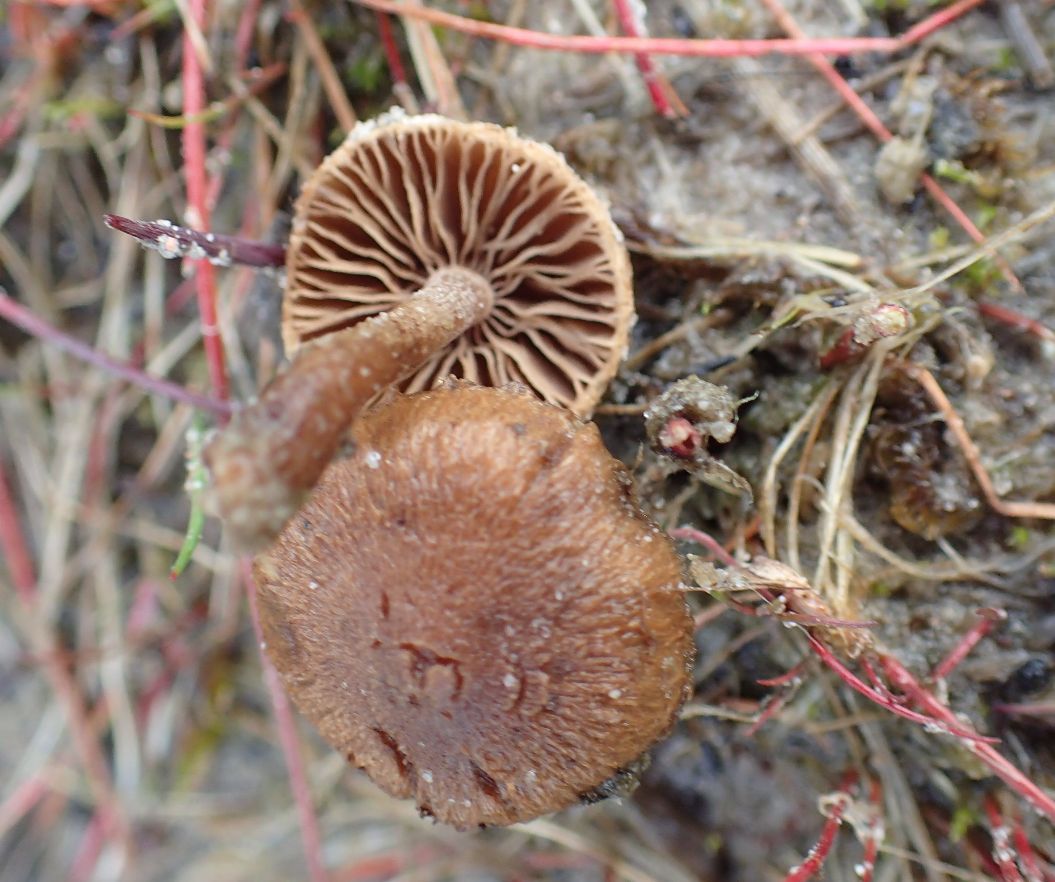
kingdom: Fungi
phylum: Basidiomycota
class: Agaricomycetes
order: Agaricales
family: Inocybaceae
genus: Inocybe
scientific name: Inocybe lacera
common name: laset trævlhat
